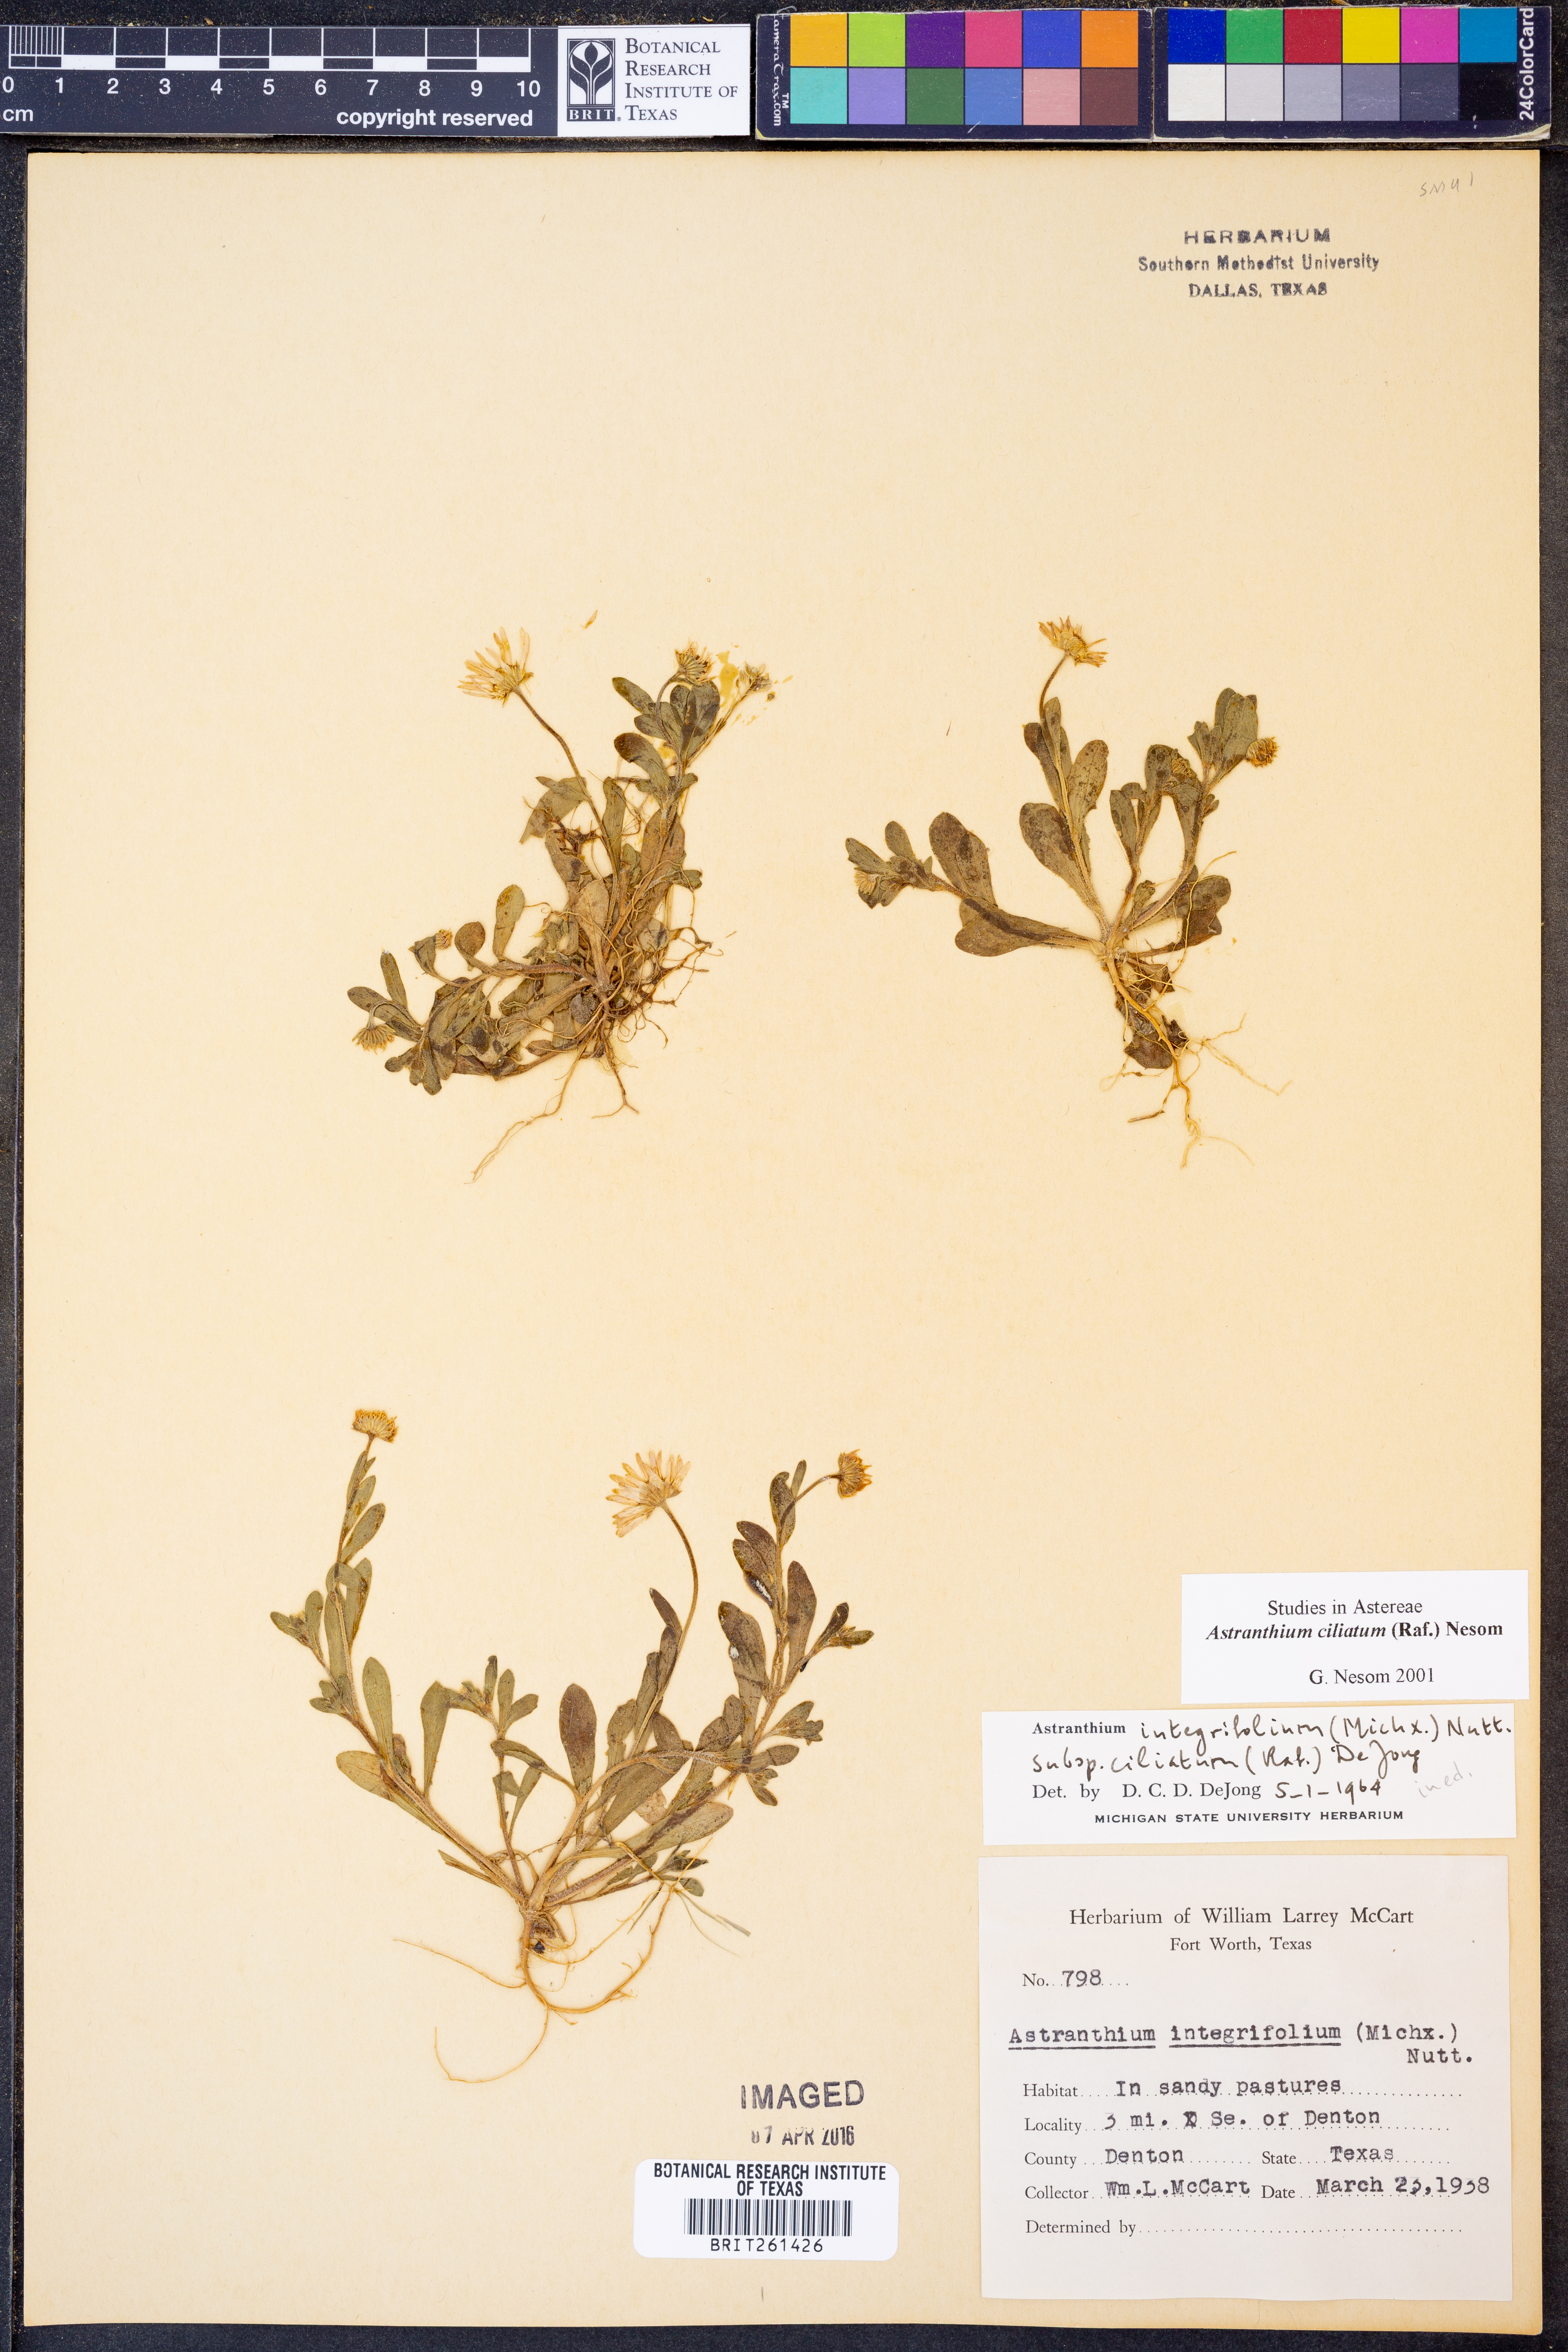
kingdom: Plantae
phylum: Tracheophyta
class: Magnoliopsida
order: Asterales
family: Asteraceae
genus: Astranthium
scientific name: Astranthium ciliatum
